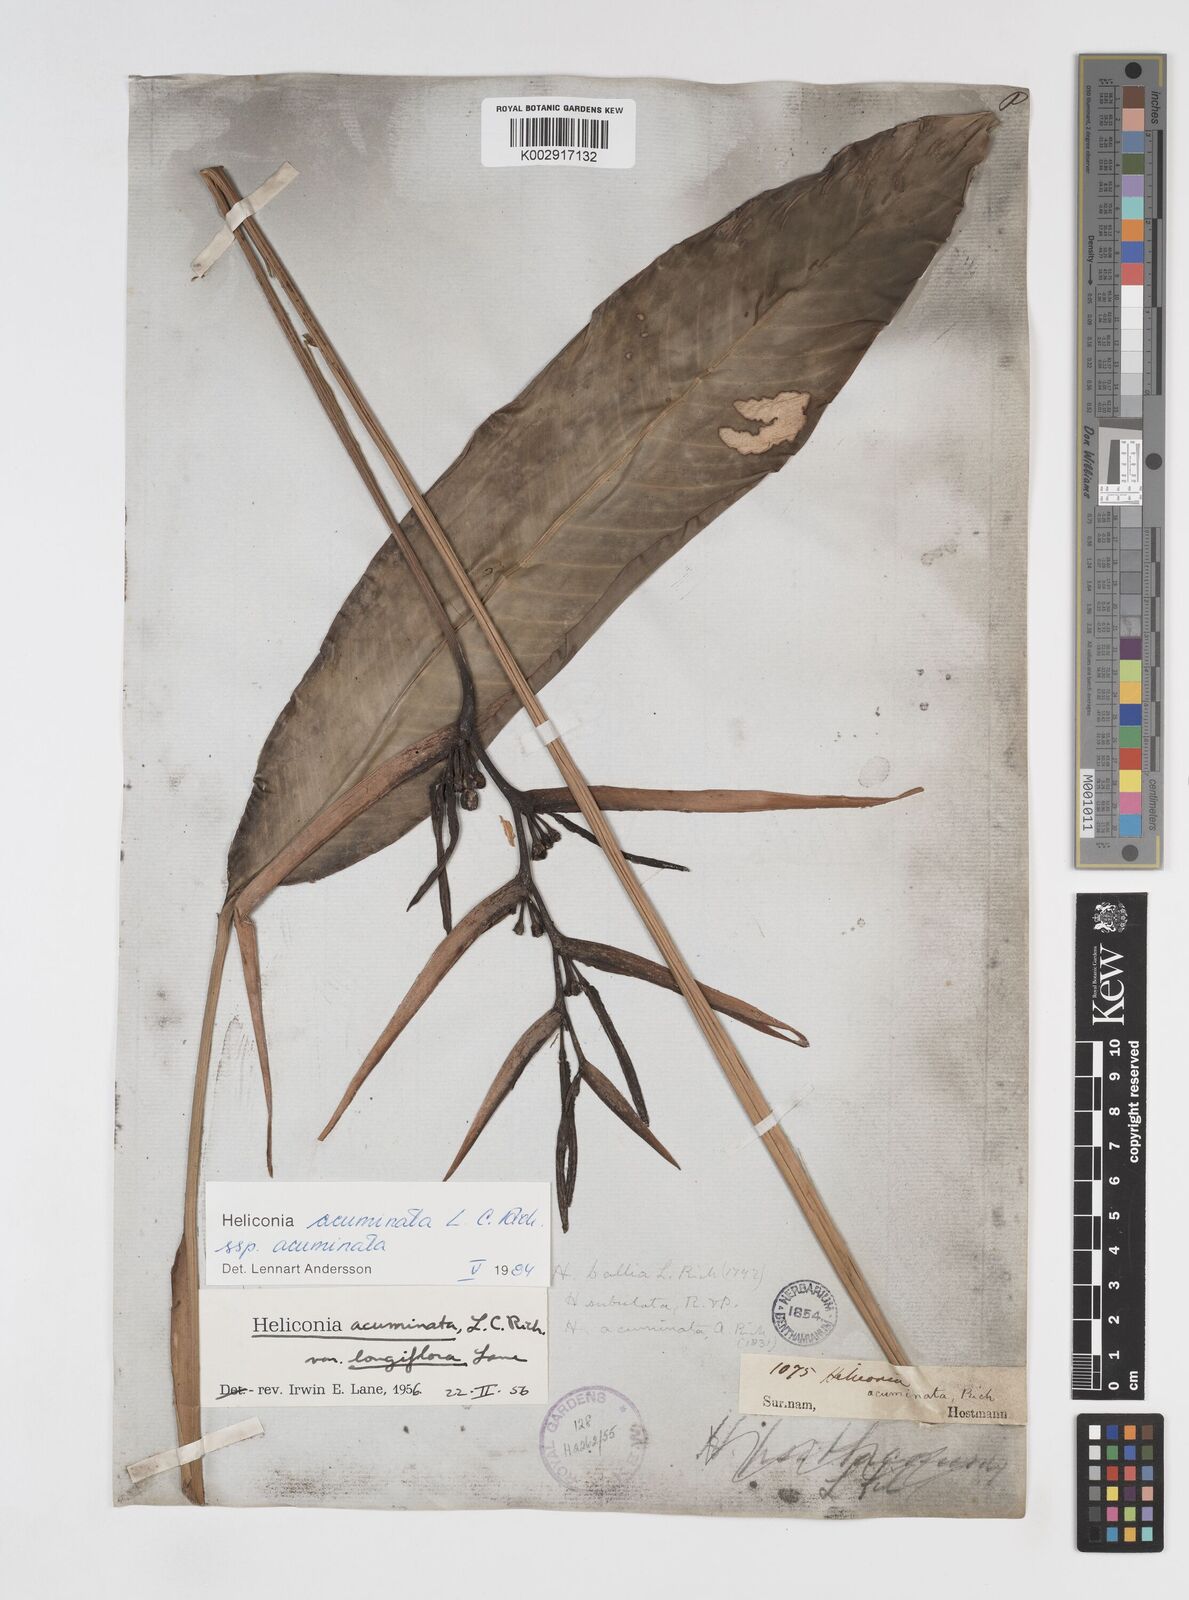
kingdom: Plantae
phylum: Tracheophyta
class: Liliopsida
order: Zingiberales
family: Heliconiaceae
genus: Heliconia
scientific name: Heliconia acuminata
